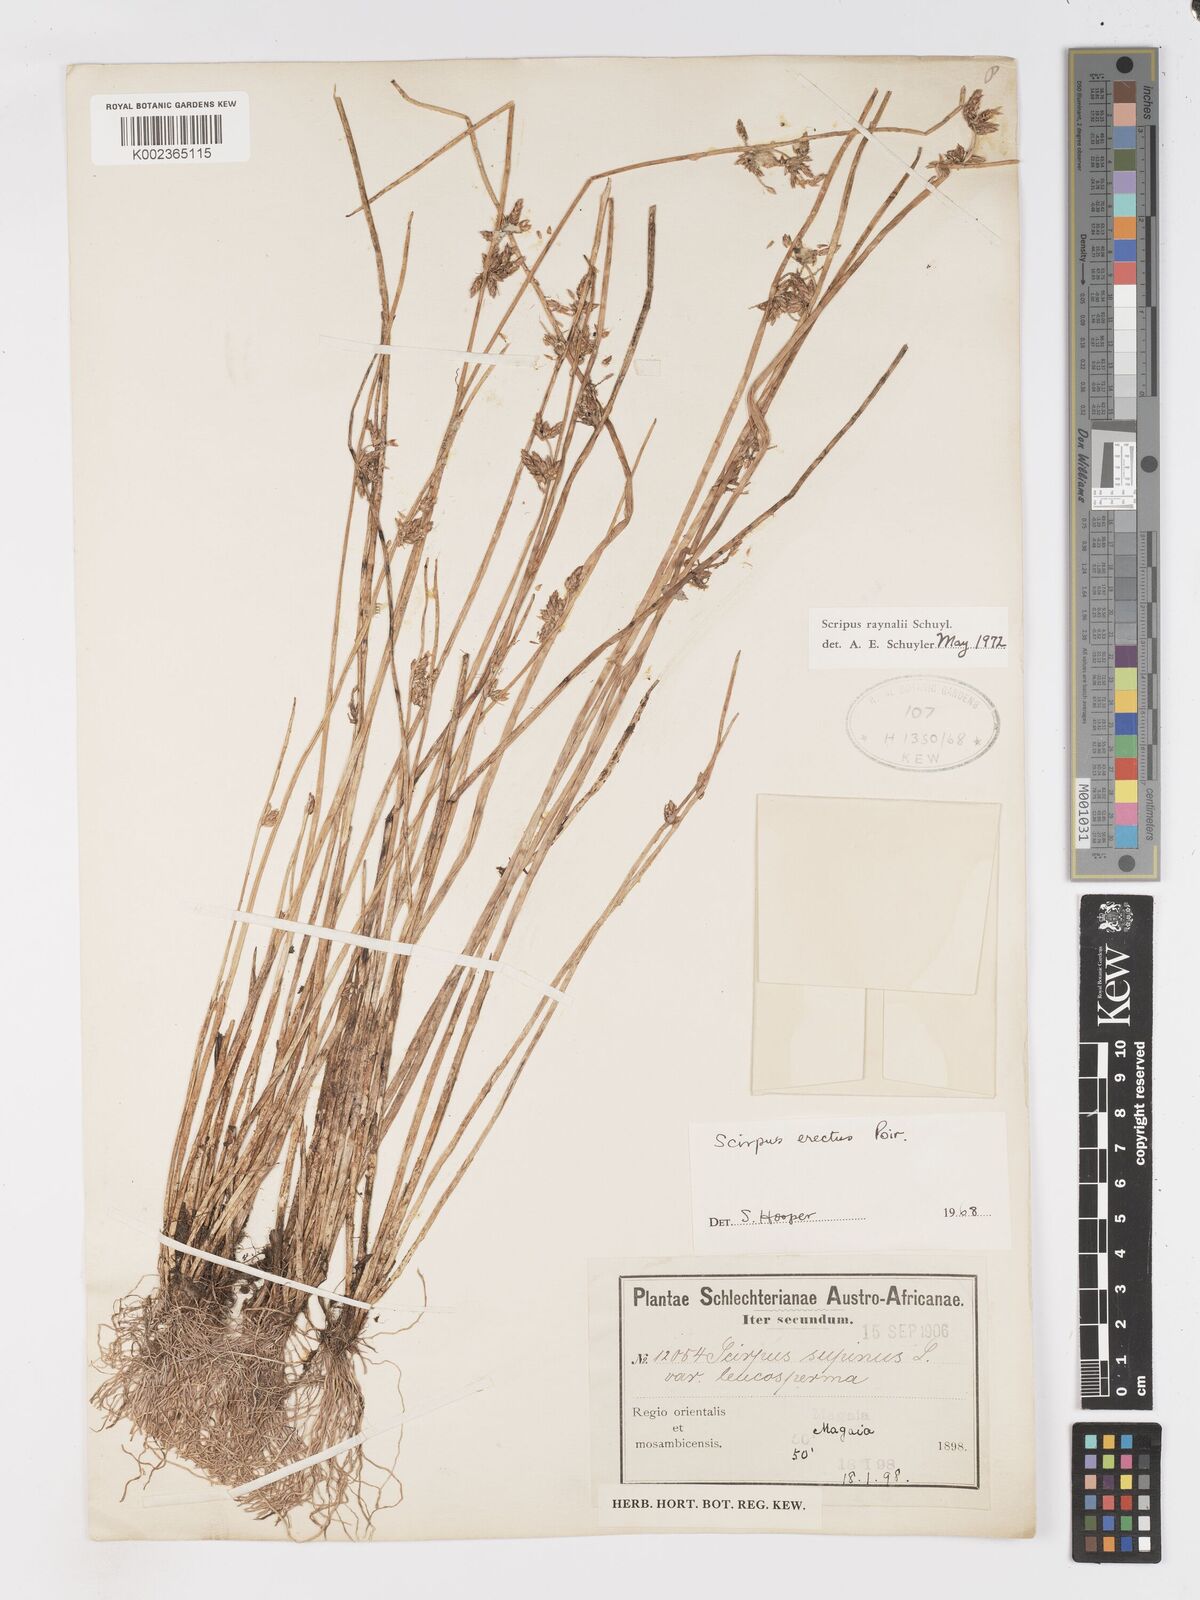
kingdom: Plantae
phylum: Tracheophyta
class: Liliopsida
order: Poales
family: Cyperaceae
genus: Schoenoplectiella
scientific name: Schoenoplectiella erecta
